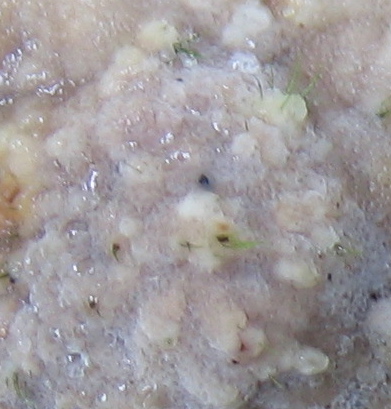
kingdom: Fungi
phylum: Basidiomycota
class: Agaricomycetes
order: Polyporales
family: Meripilaceae
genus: Rigidoporus
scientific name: Rigidoporus sanguinolentus
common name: blod-skorpeporesvamp
